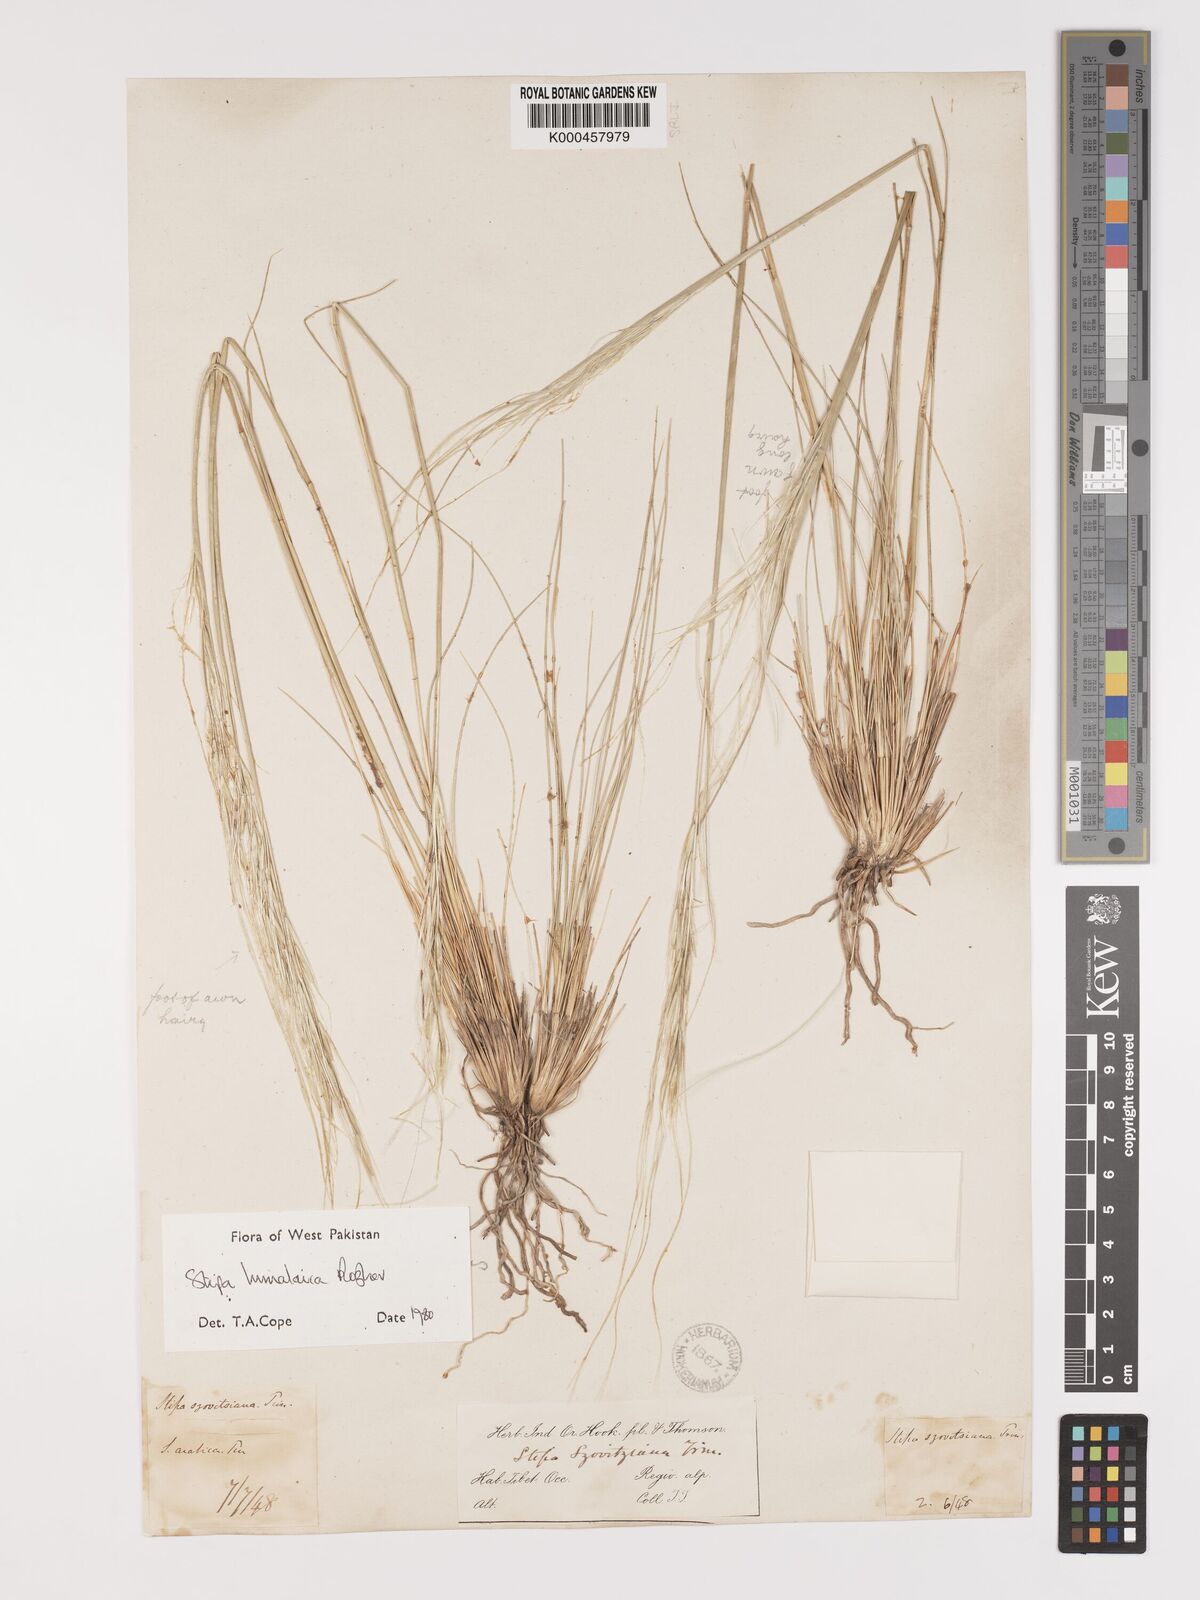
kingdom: Plantae
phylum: Tracheophyta
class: Liliopsida
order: Poales
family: Poaceae
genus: Stipa
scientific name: Stipa himalaica
